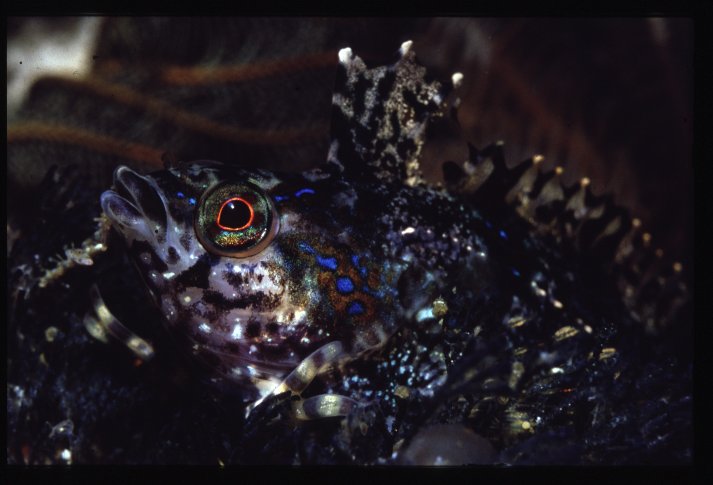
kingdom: Animalia
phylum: Chordata
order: Perciformes
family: Clinidae
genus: Pavoclinus
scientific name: Pavoclinus caeruleopunctatus
